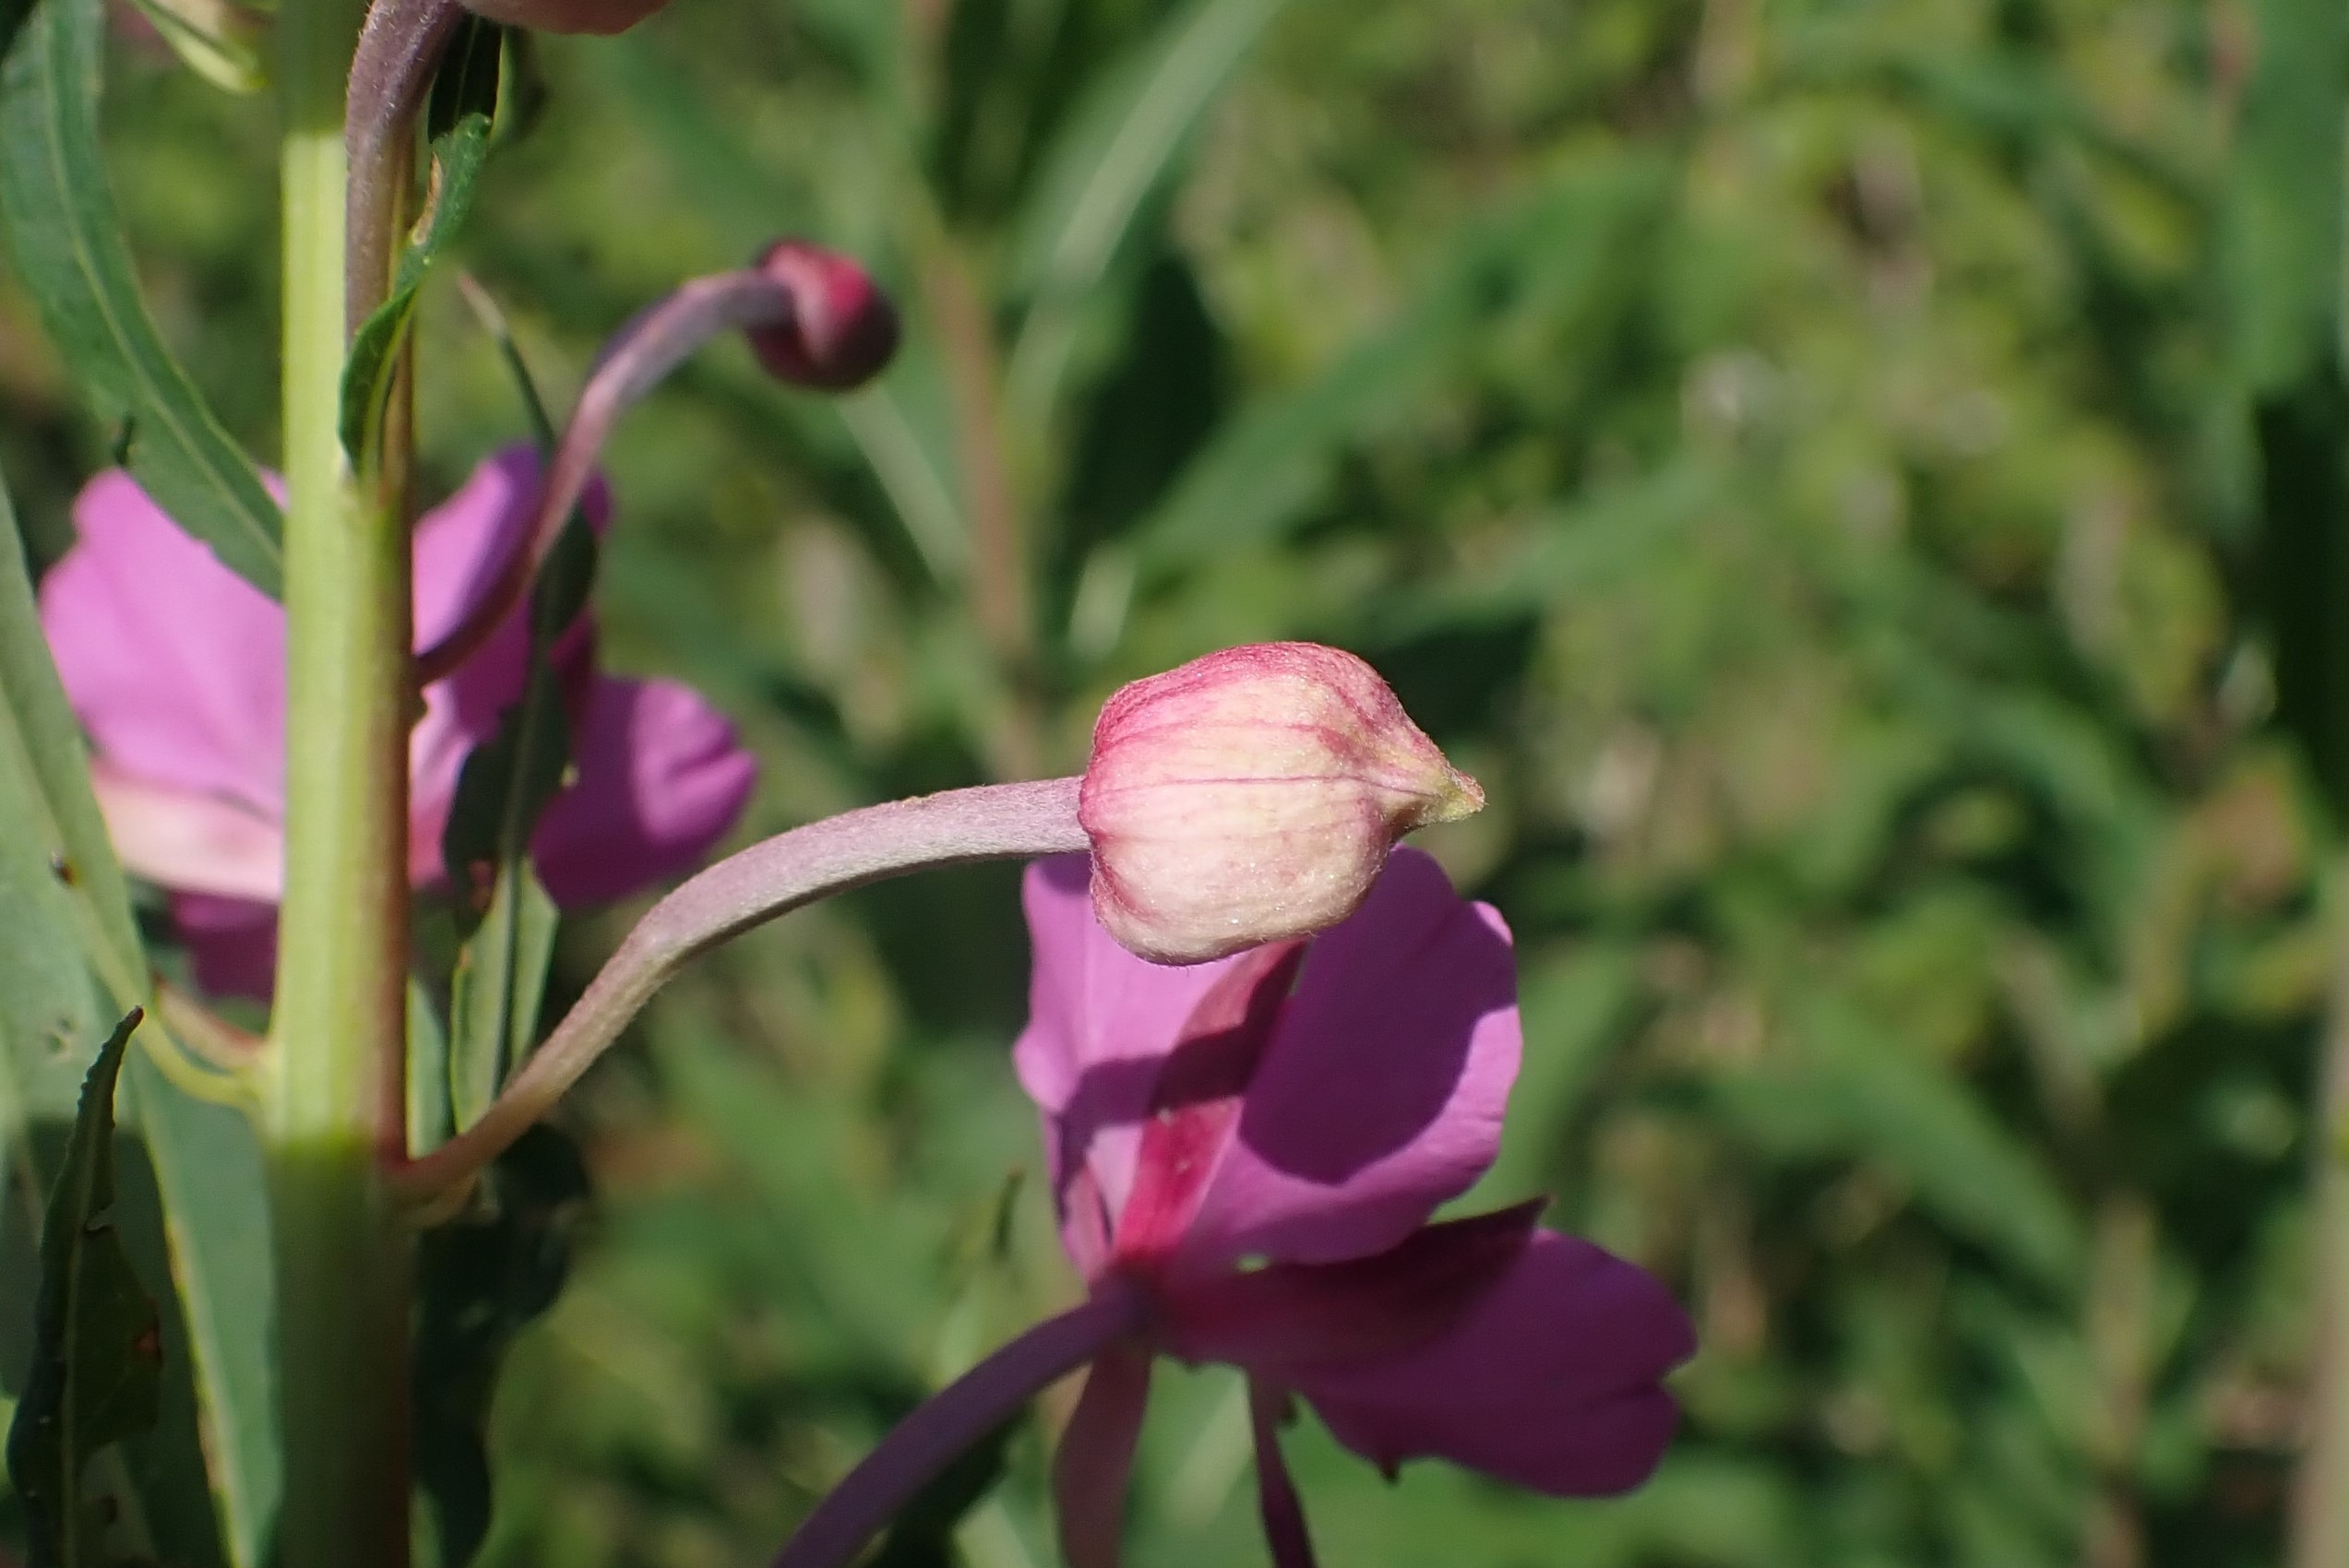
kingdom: Animalia
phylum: Arthropoda
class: Insecta
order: Diptera
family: Cecidomyiidae
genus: Dasineura
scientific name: Dasineura epilobii
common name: Gederamsblomstgalmyg
